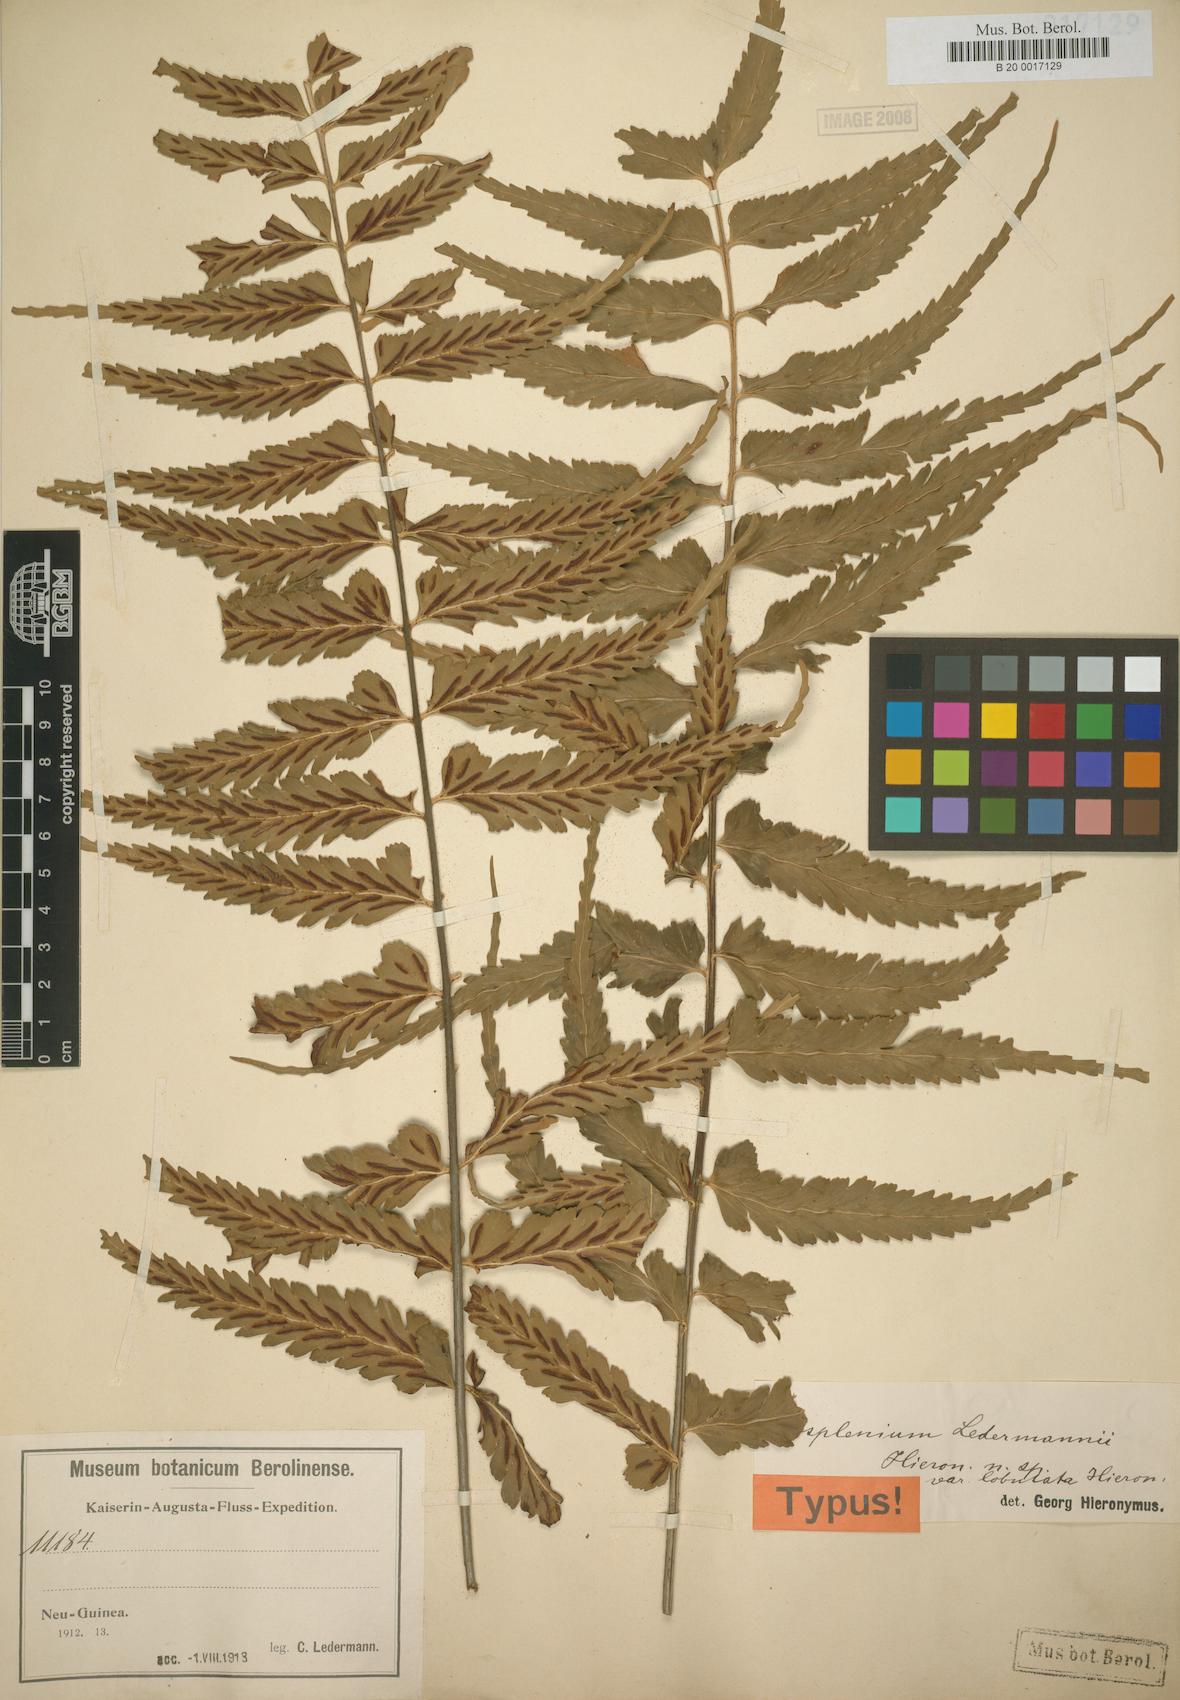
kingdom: Plantae
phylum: Tracheophyta
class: Polypodiopsida
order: Polypodiales
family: Aspleniaceae
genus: Asplenium
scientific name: Asplenium lobulatum
